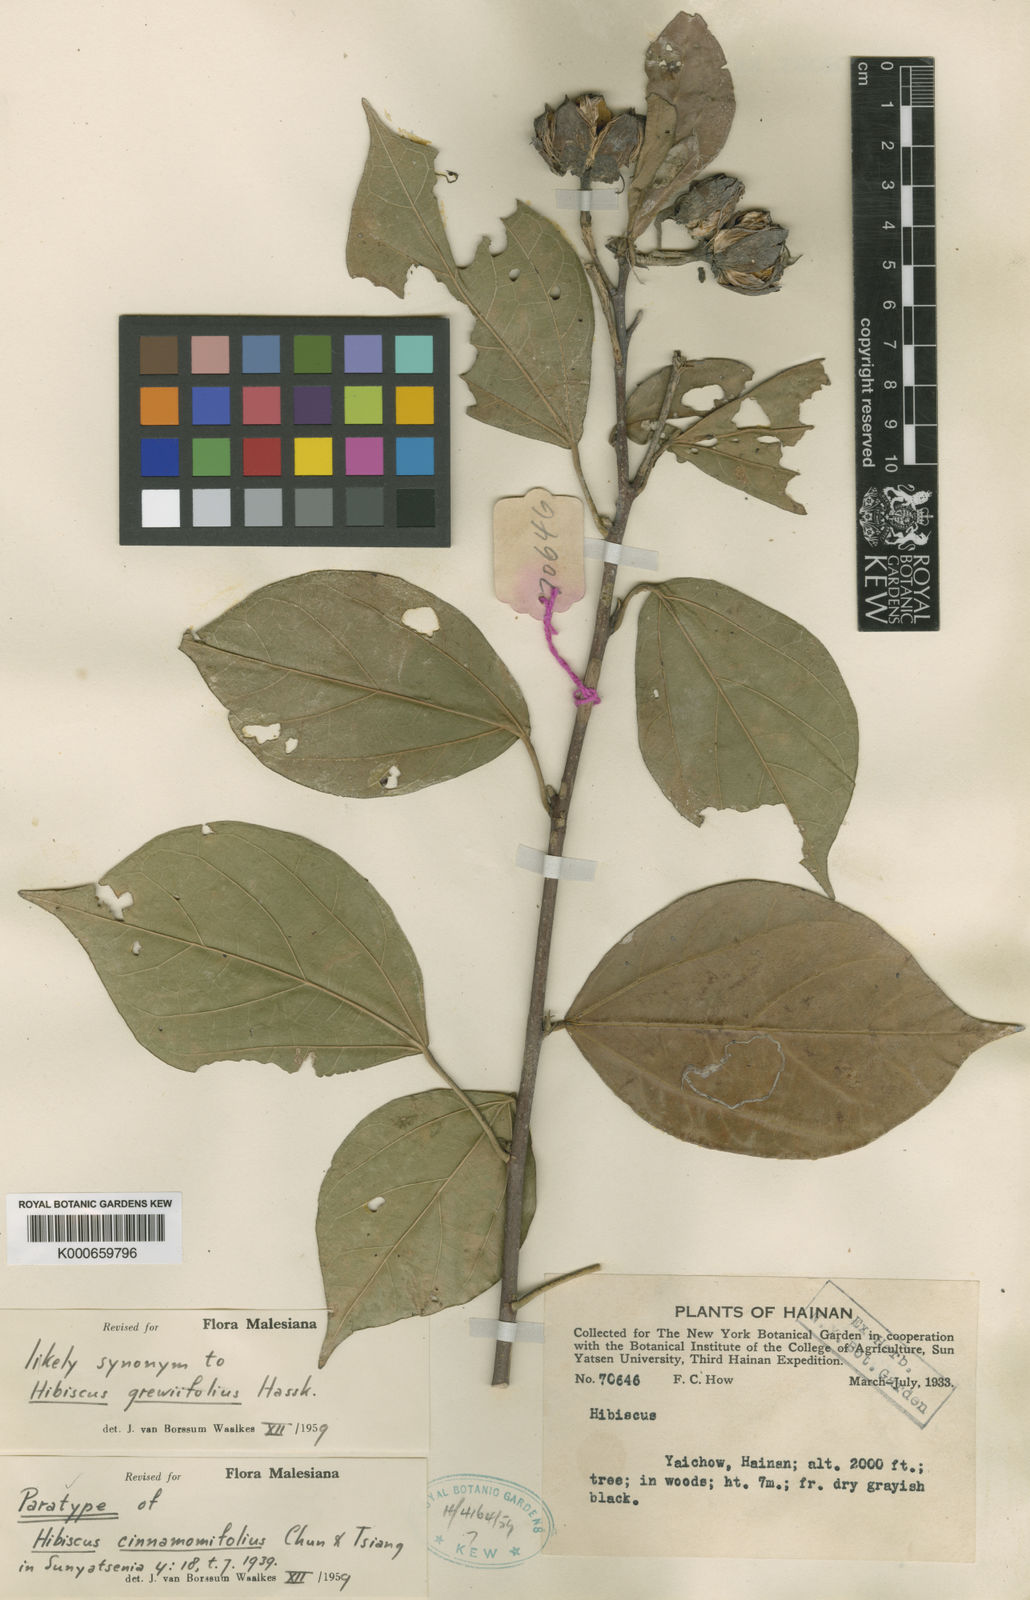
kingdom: Plantae
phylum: Tracheophyta
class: Magnoliopsida
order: Malvales
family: Malvaceae
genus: Hibiscus
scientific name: Hibiscus grewiifolius
